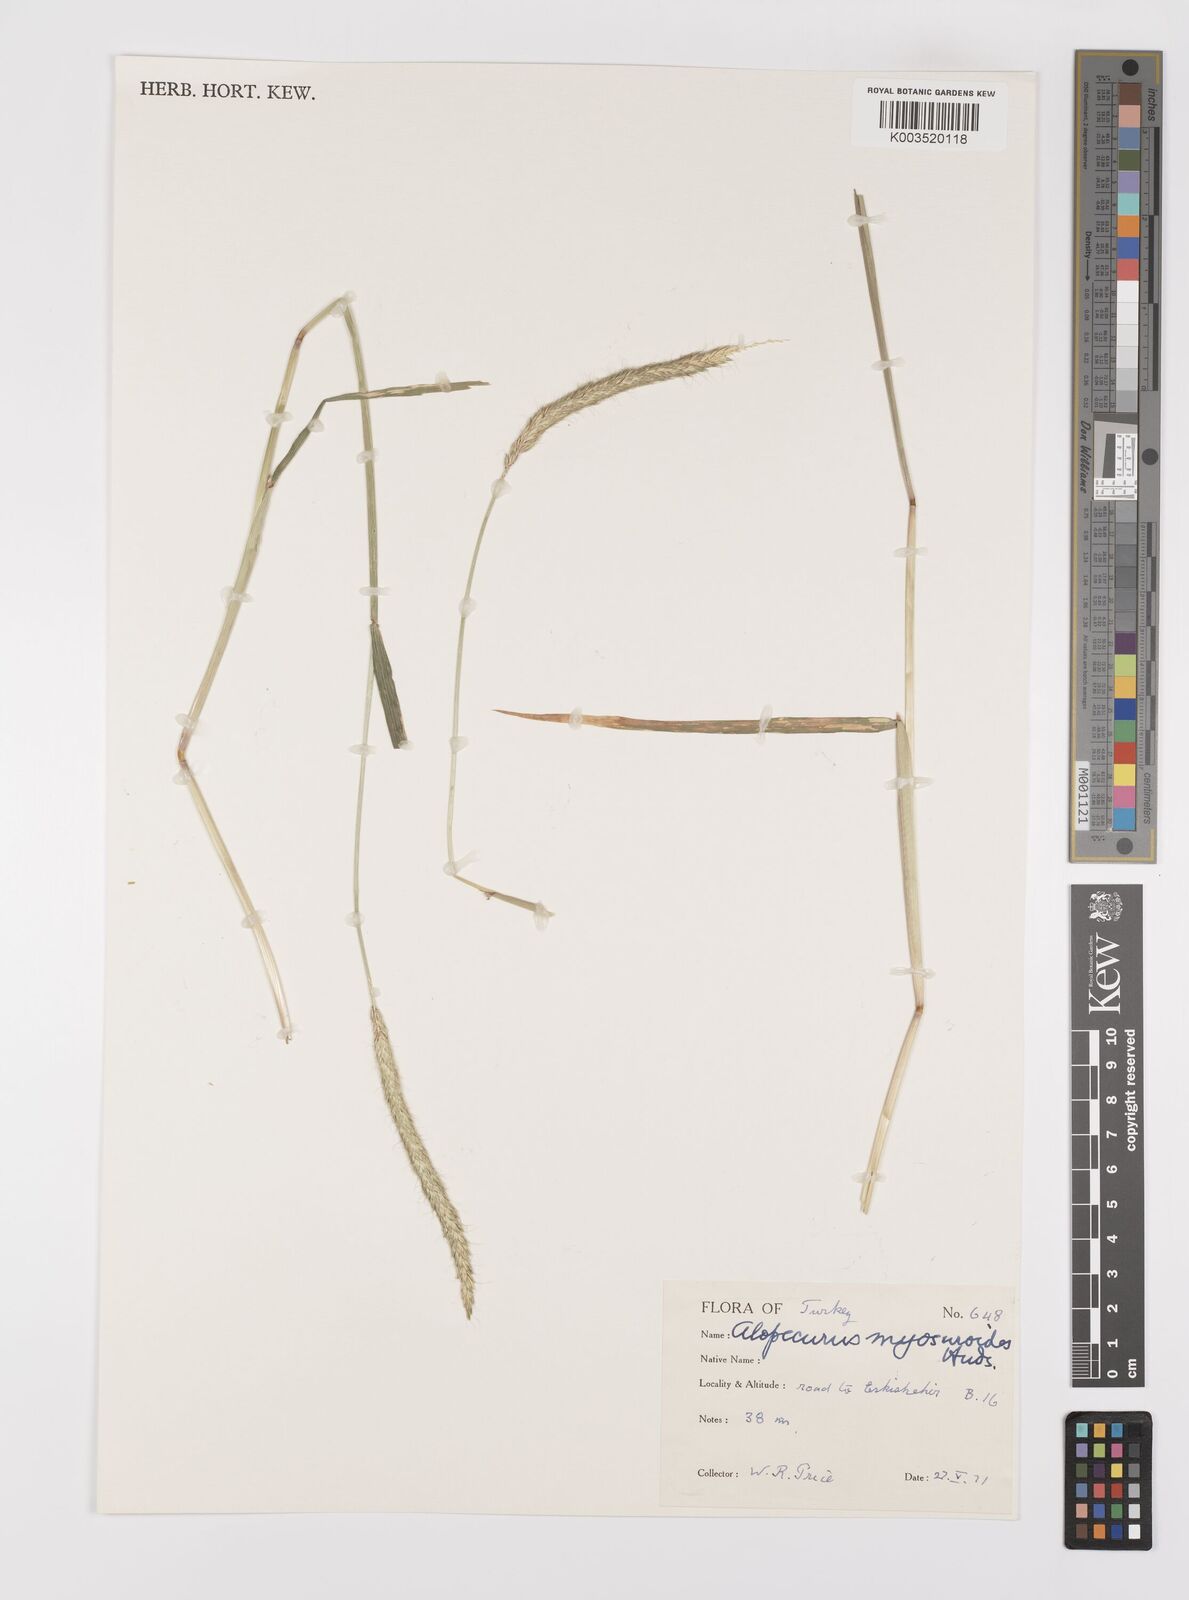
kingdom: Plantae
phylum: Tracheophyta
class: Liliopsida
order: Poales
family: Poaceae
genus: Alopecurus
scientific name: Alopecurus myosuroides
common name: Black-grass
